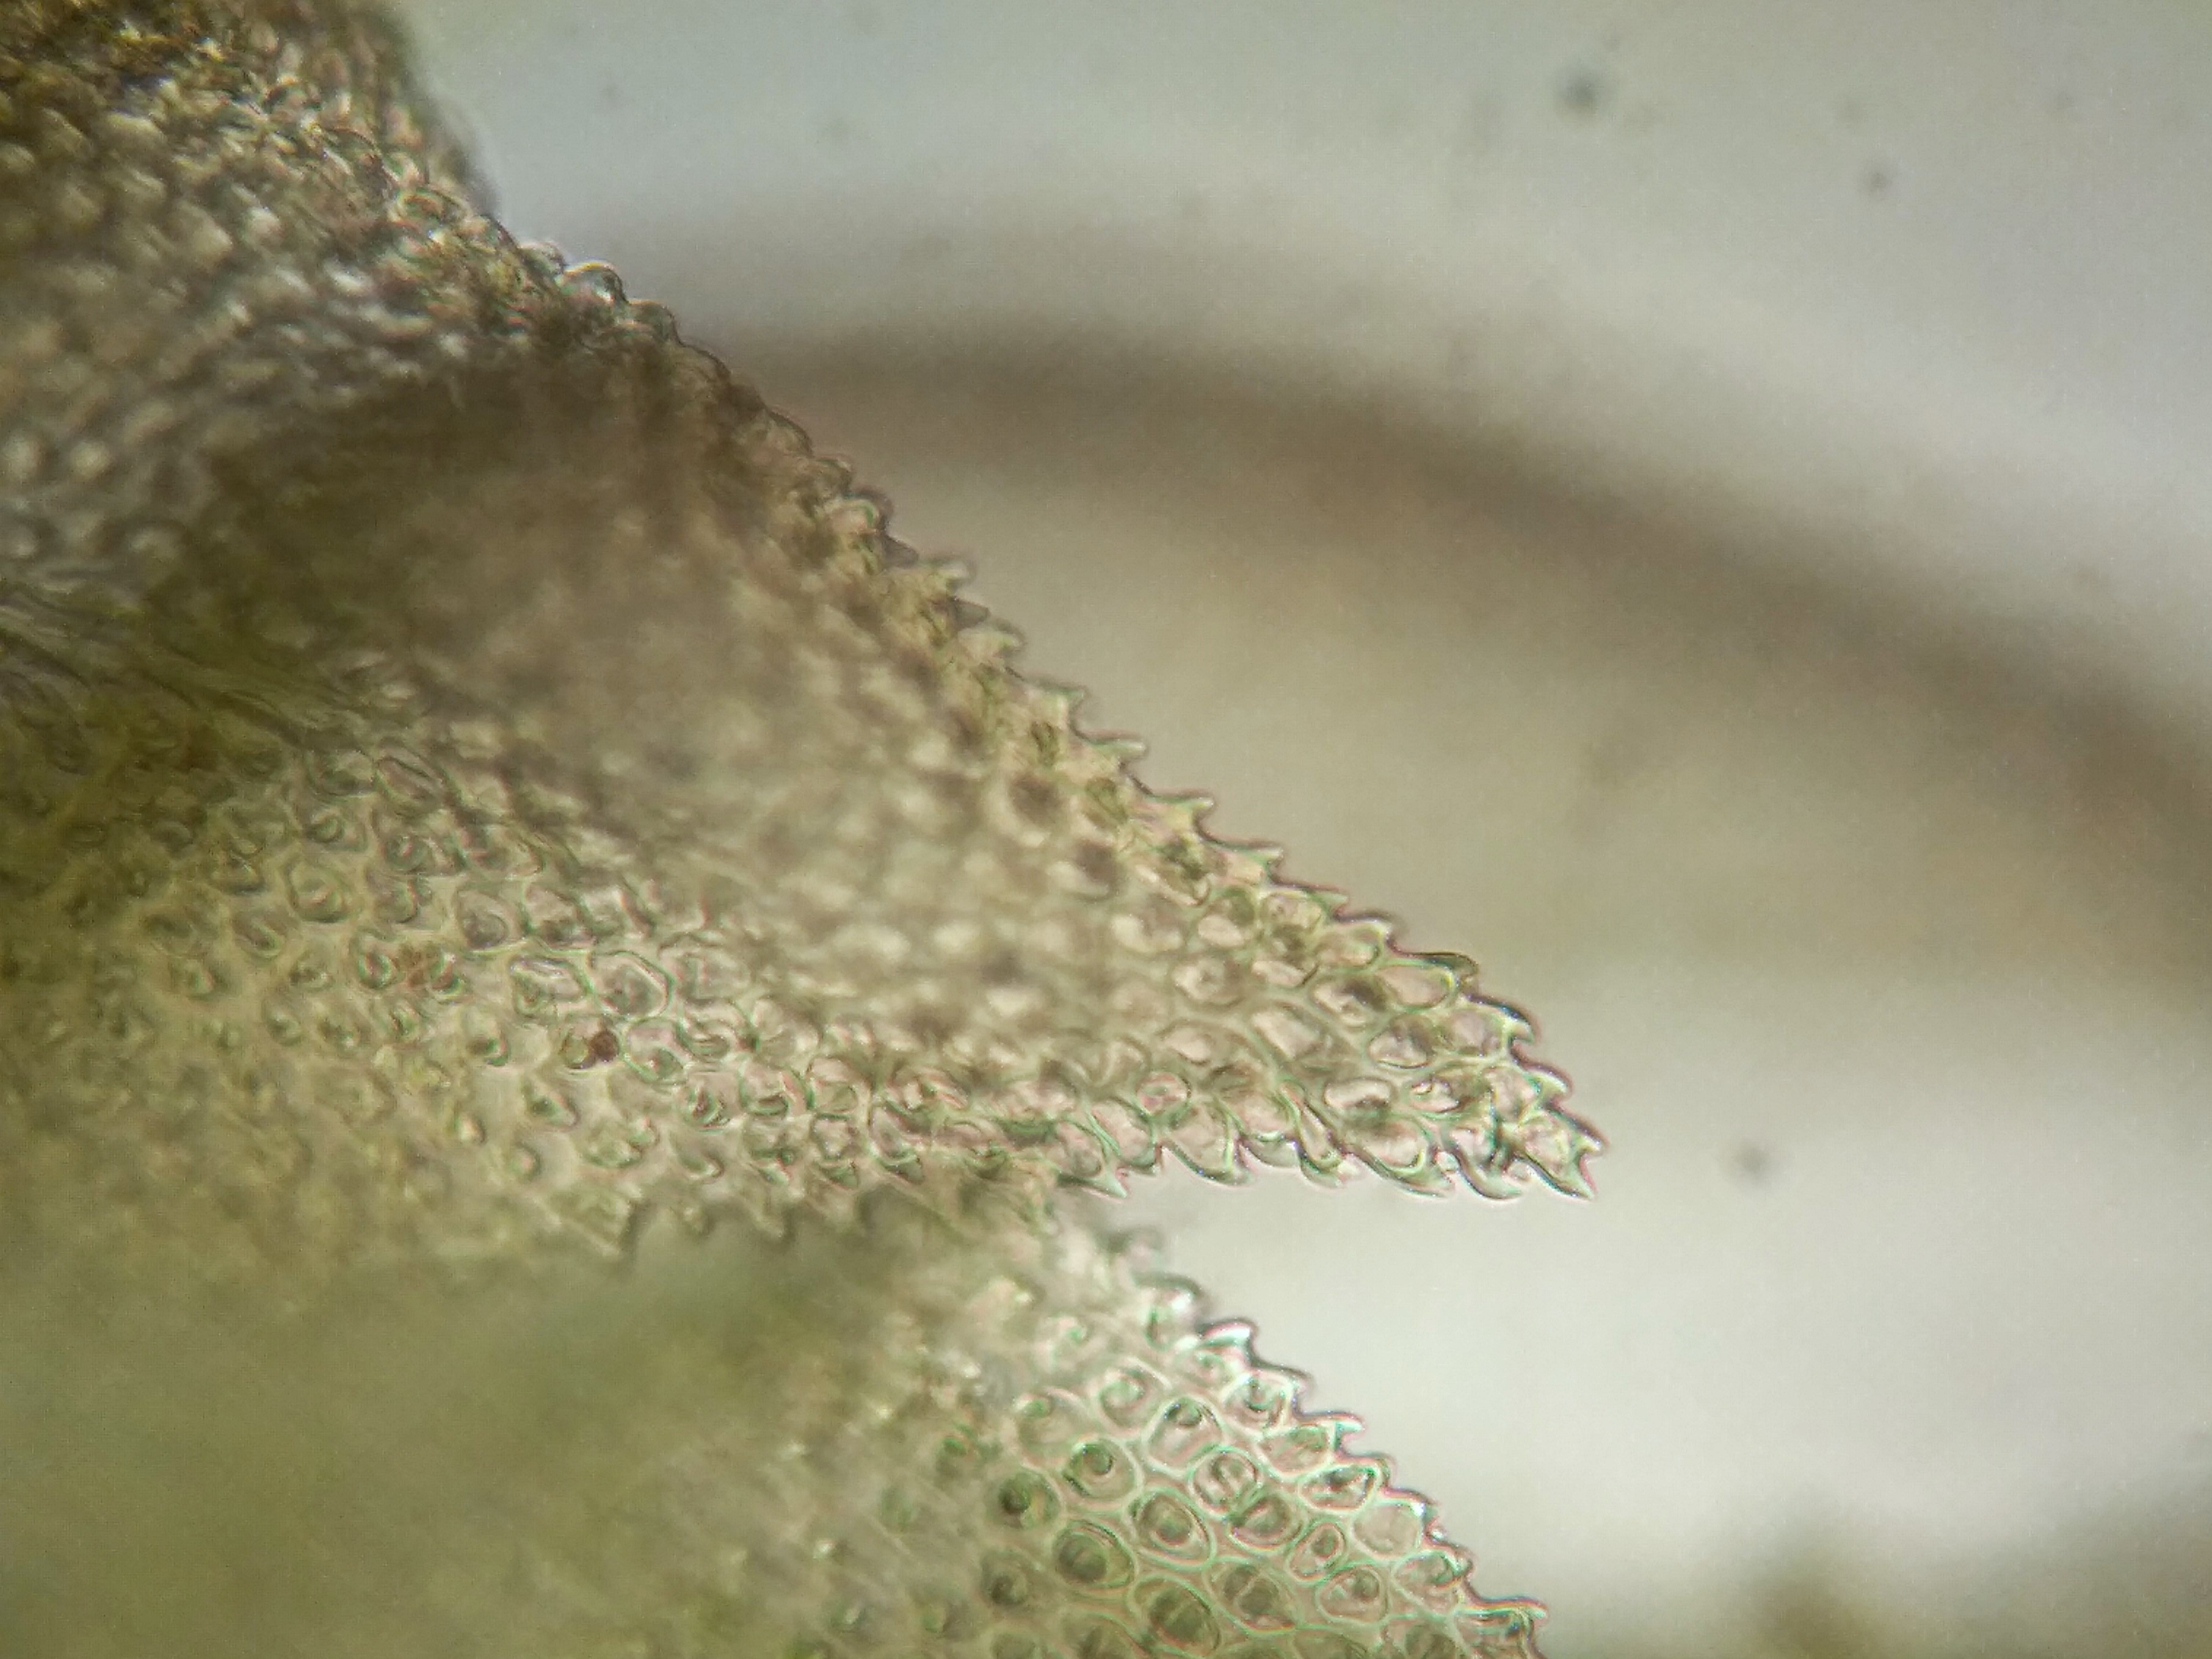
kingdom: Plantae
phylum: Bryophyta
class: Bryopsida
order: Hypnales
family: Thuidiaceae
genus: Thuidium
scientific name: Thuidium assimile
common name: Spidsbladet bregnemos
